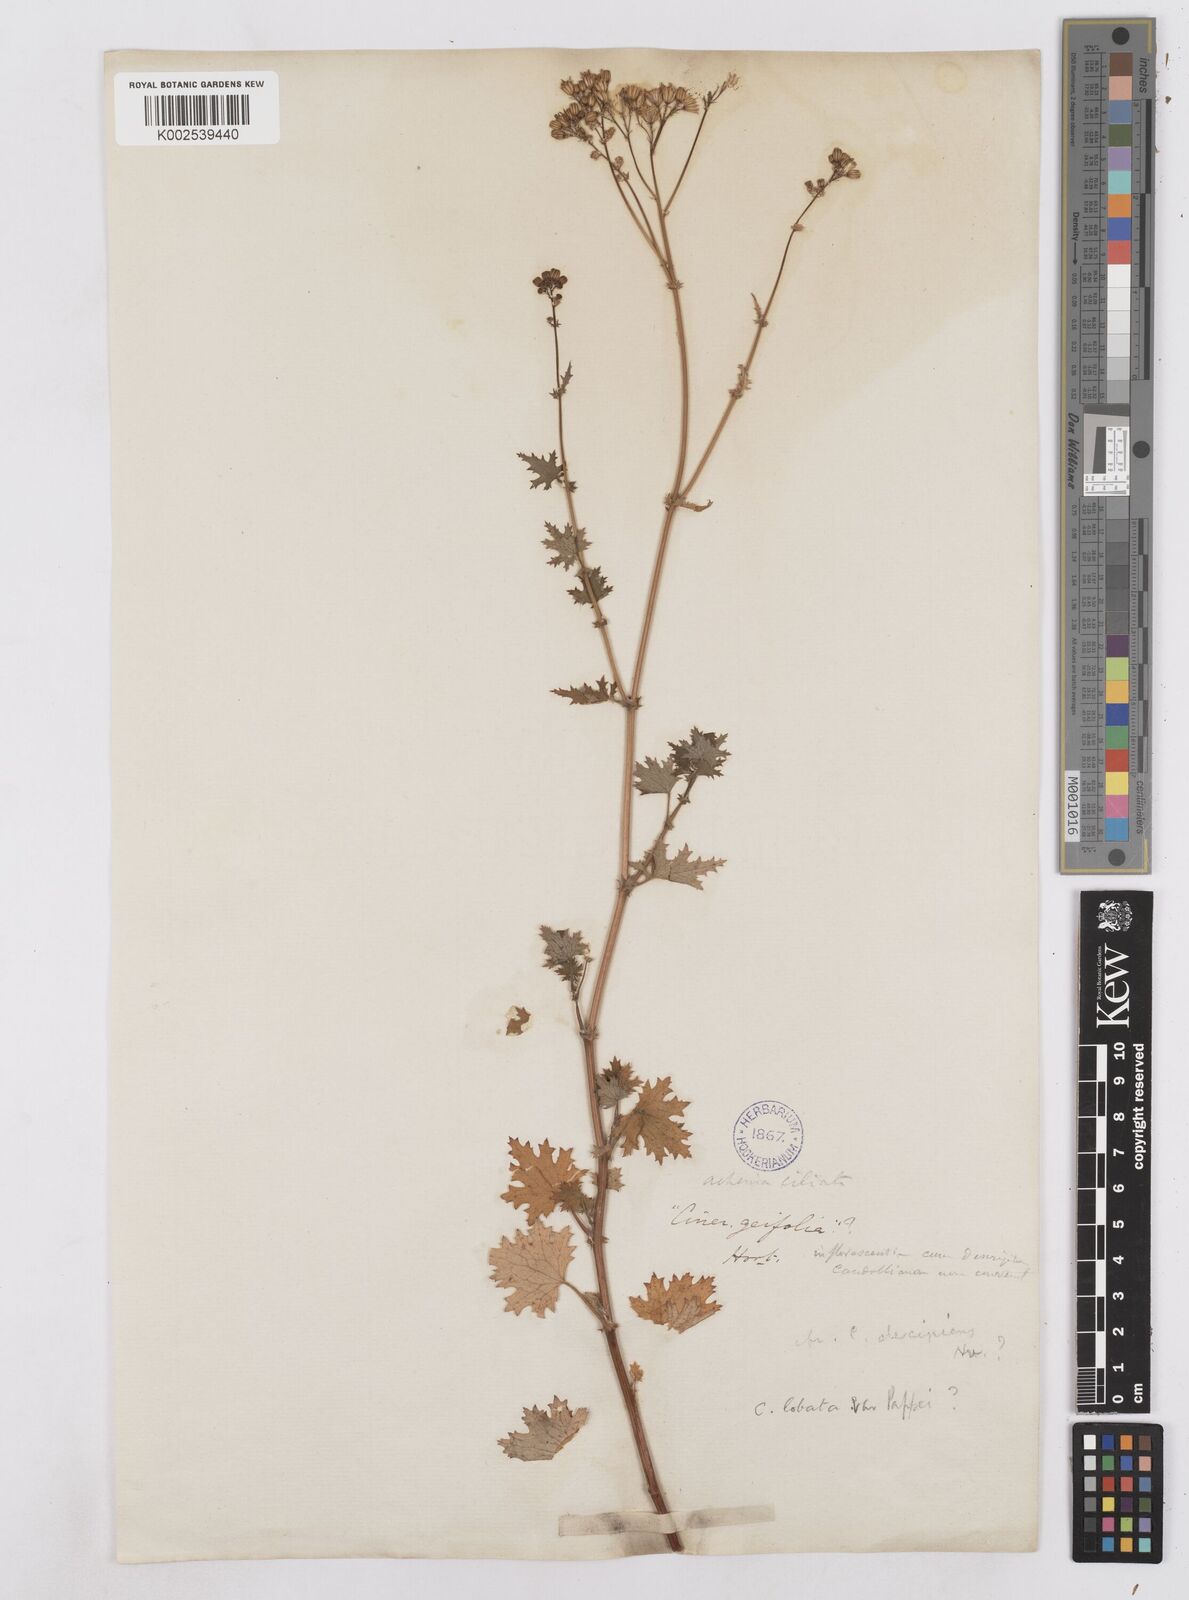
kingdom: Plantae
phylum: Tracheophyta
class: Magnoliopsida
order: Asterales
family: Asteraceae
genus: Cineraria
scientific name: Cineraria
